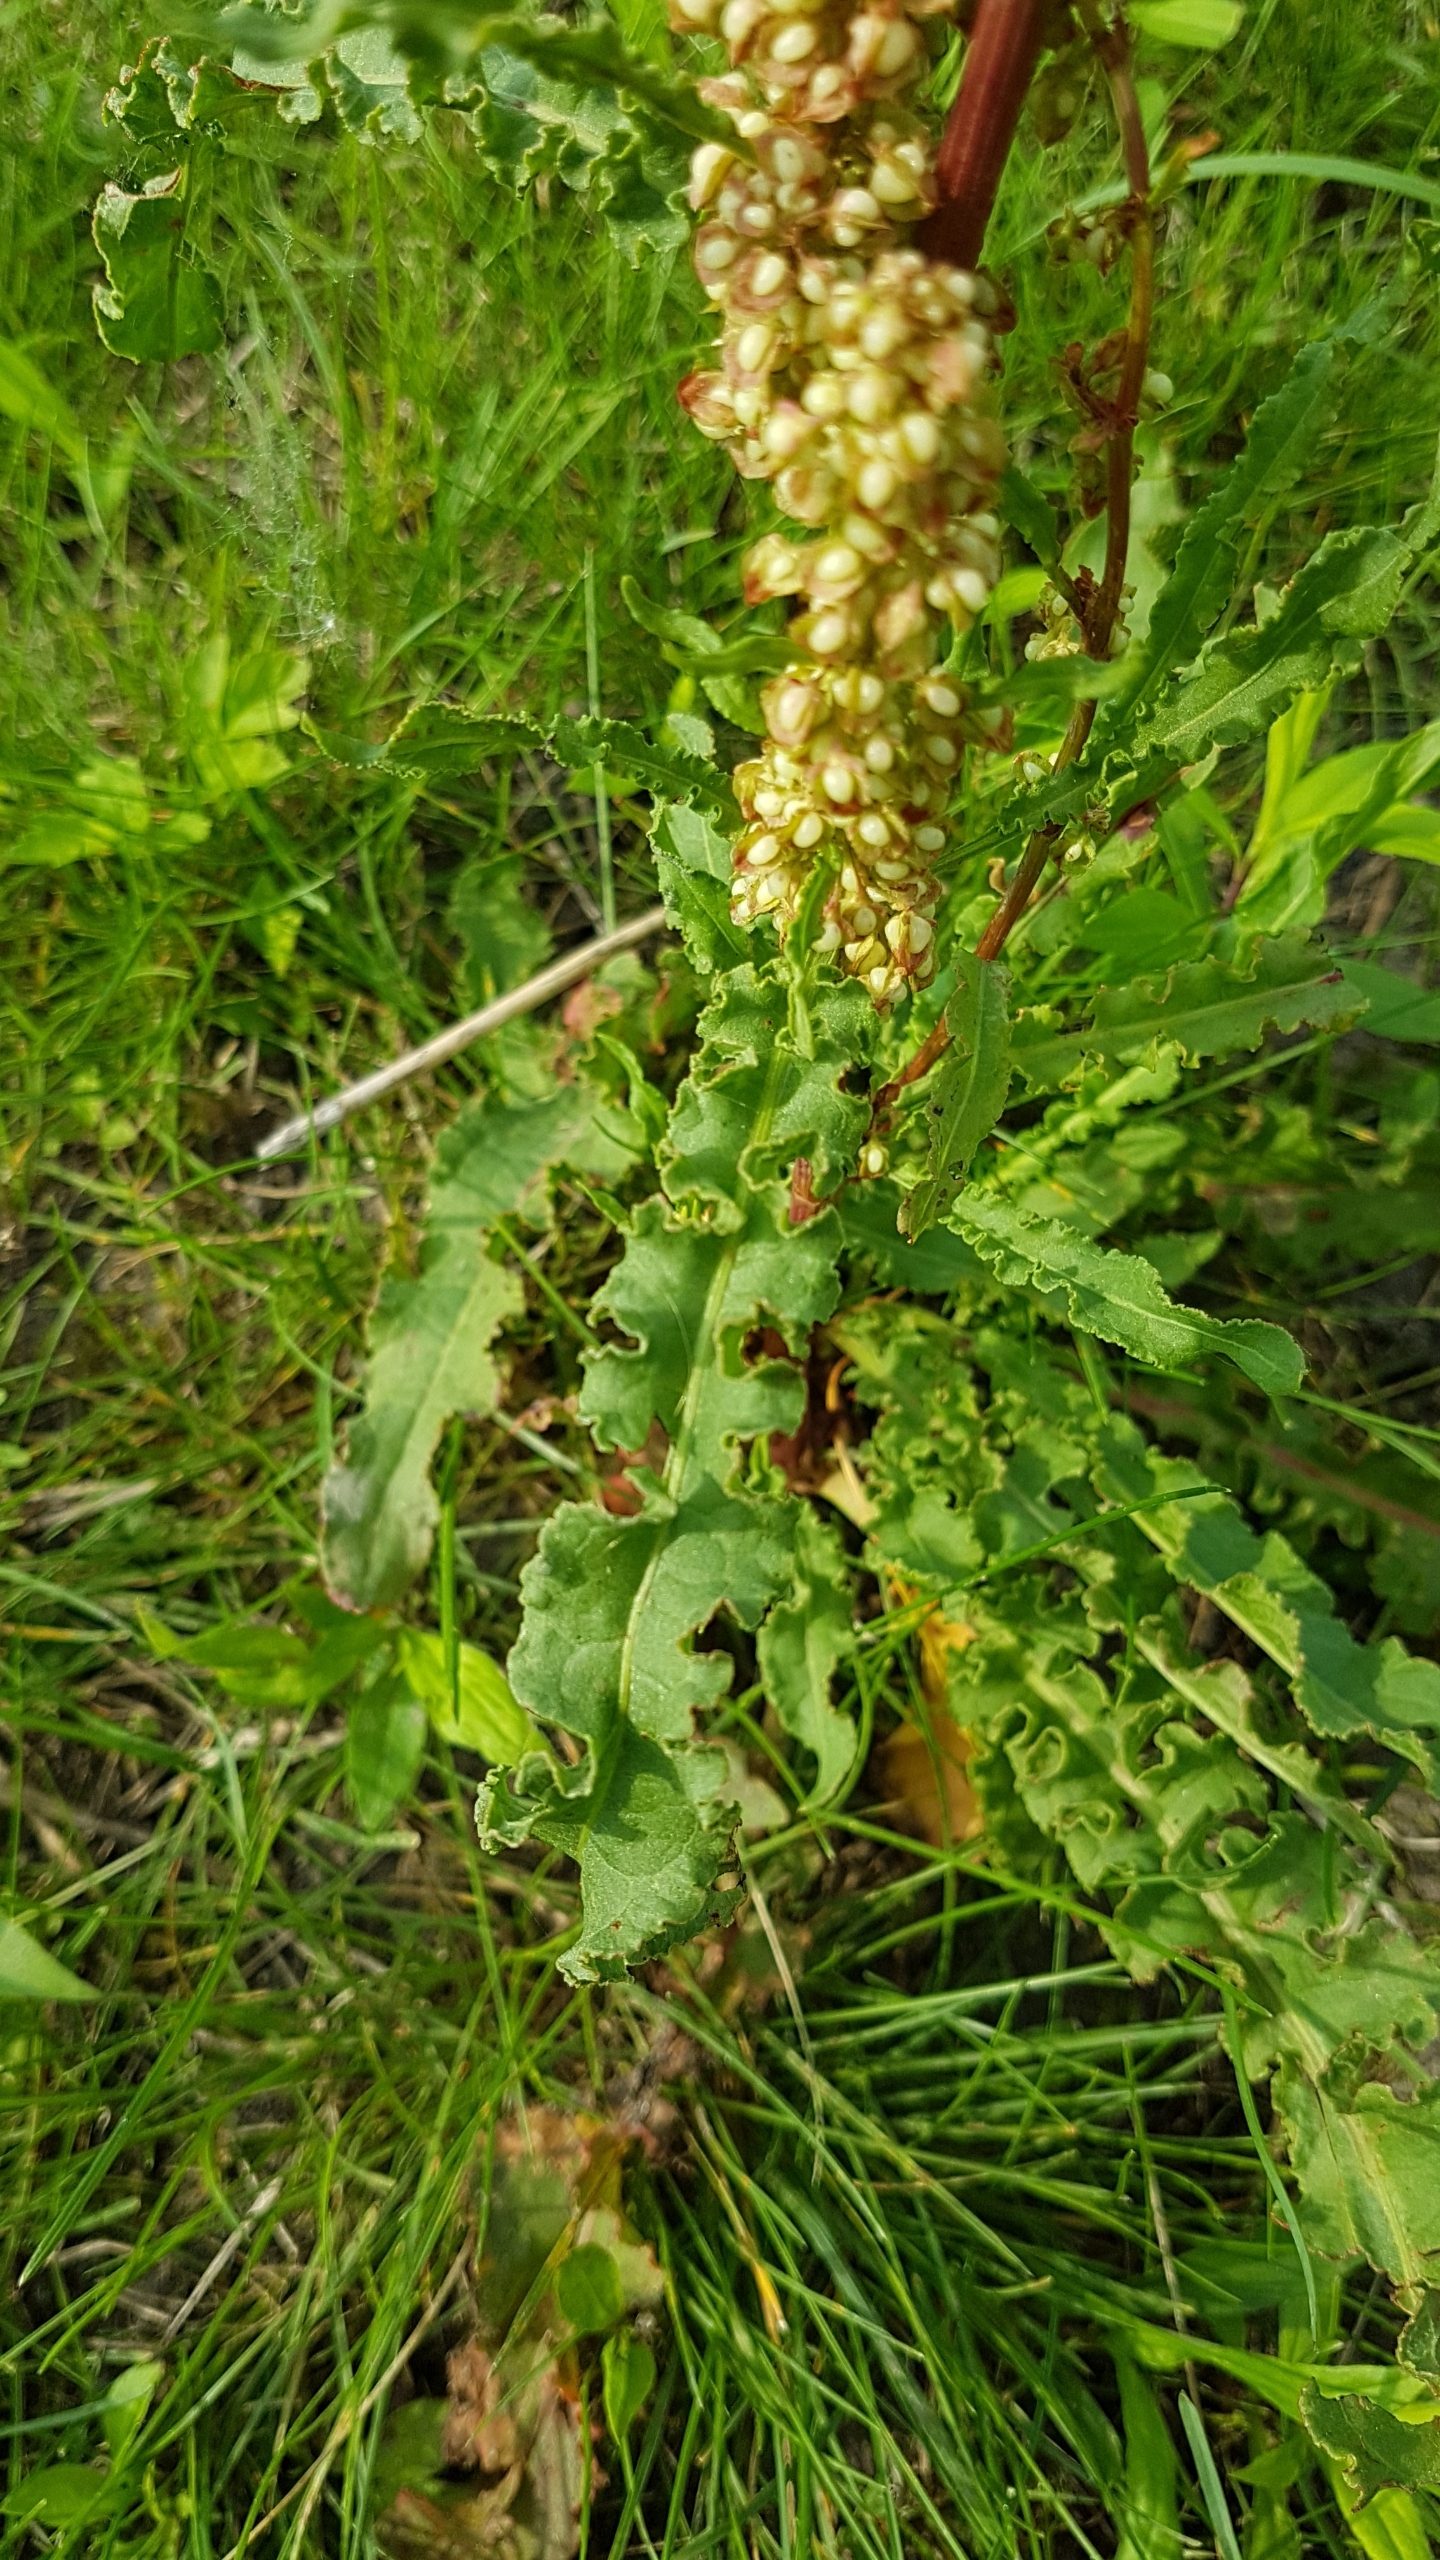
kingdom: Plantae
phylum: Tracheophyta
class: Magnoliopsida
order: Caryophyllales
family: Polygonaceae
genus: Rumex
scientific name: Rumex crispus
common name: Kruset skræppe
